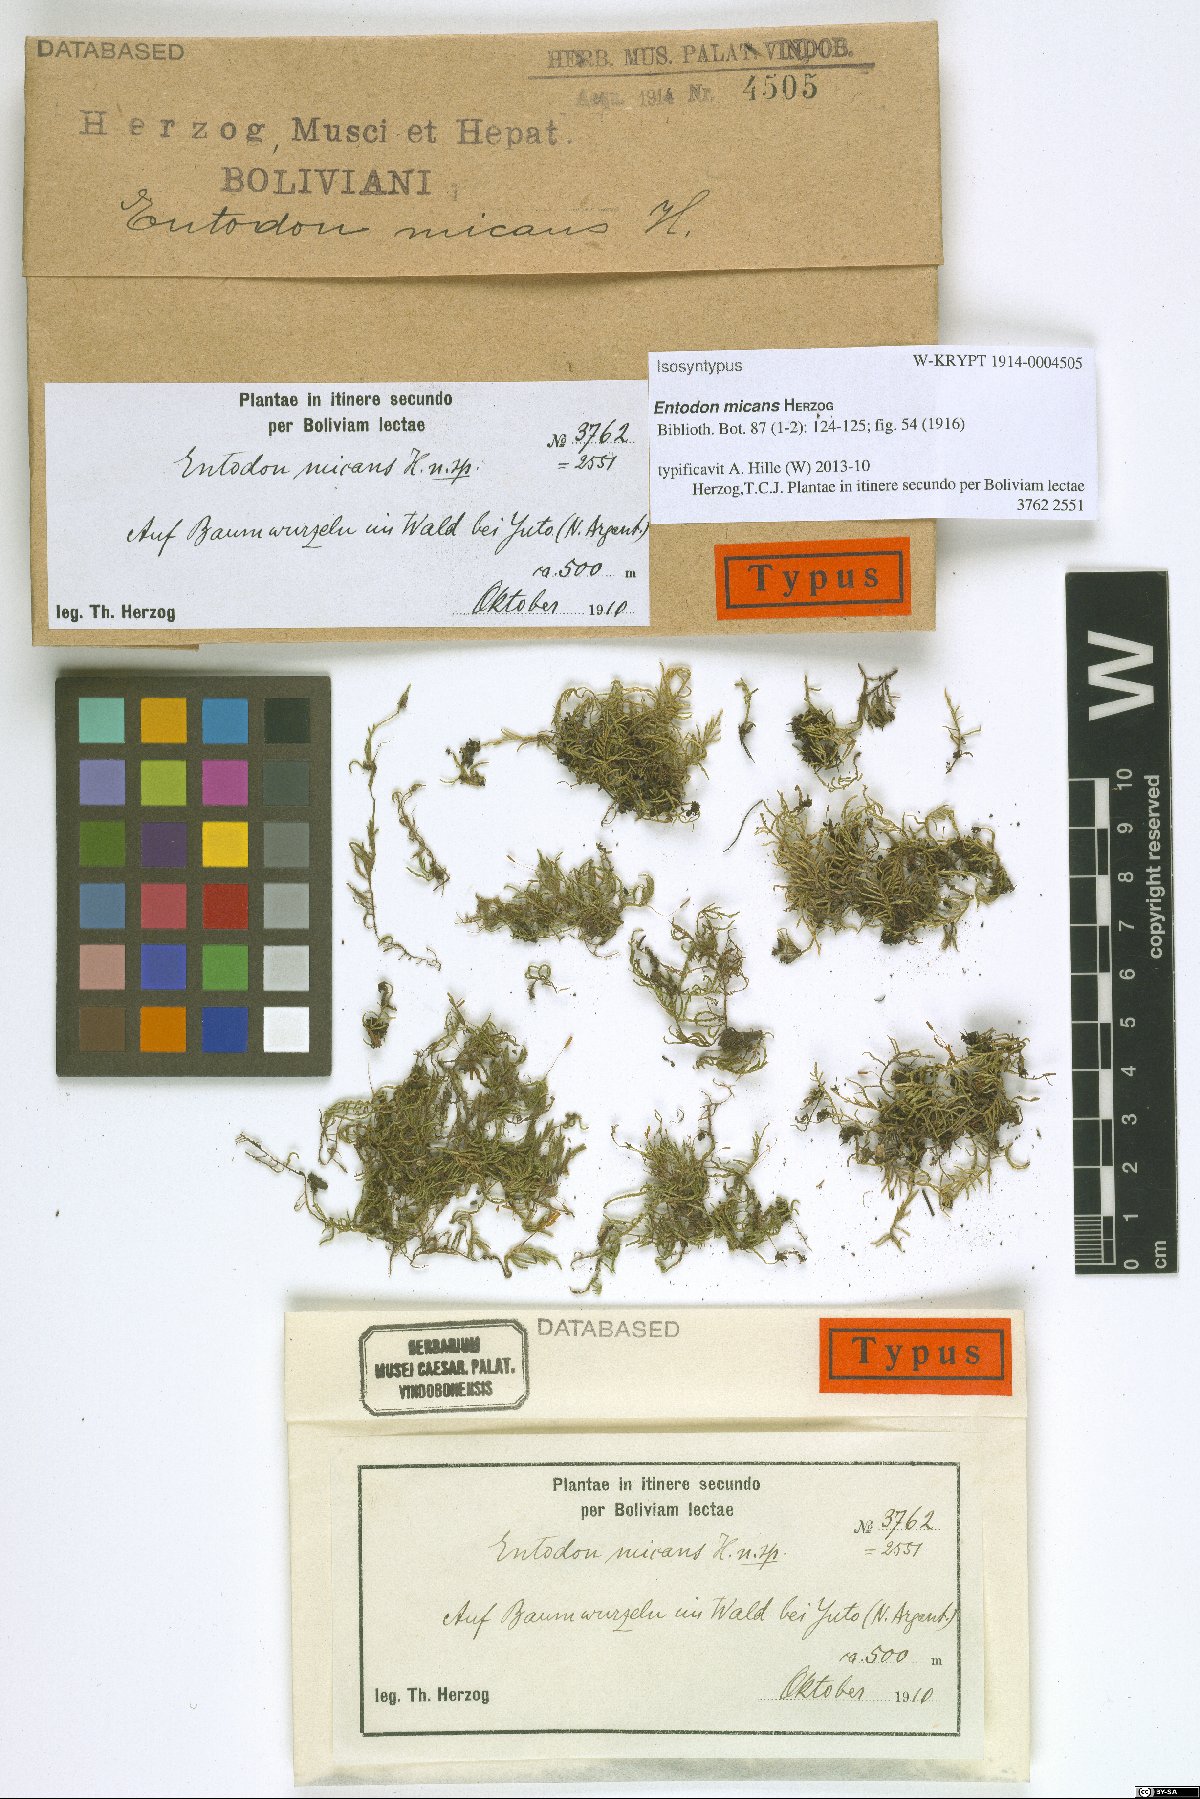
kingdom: Plantae
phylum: Bryophyta
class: Bryopsida
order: Hypnales
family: Entodontaceae
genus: Entodon
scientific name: Entodon micans
